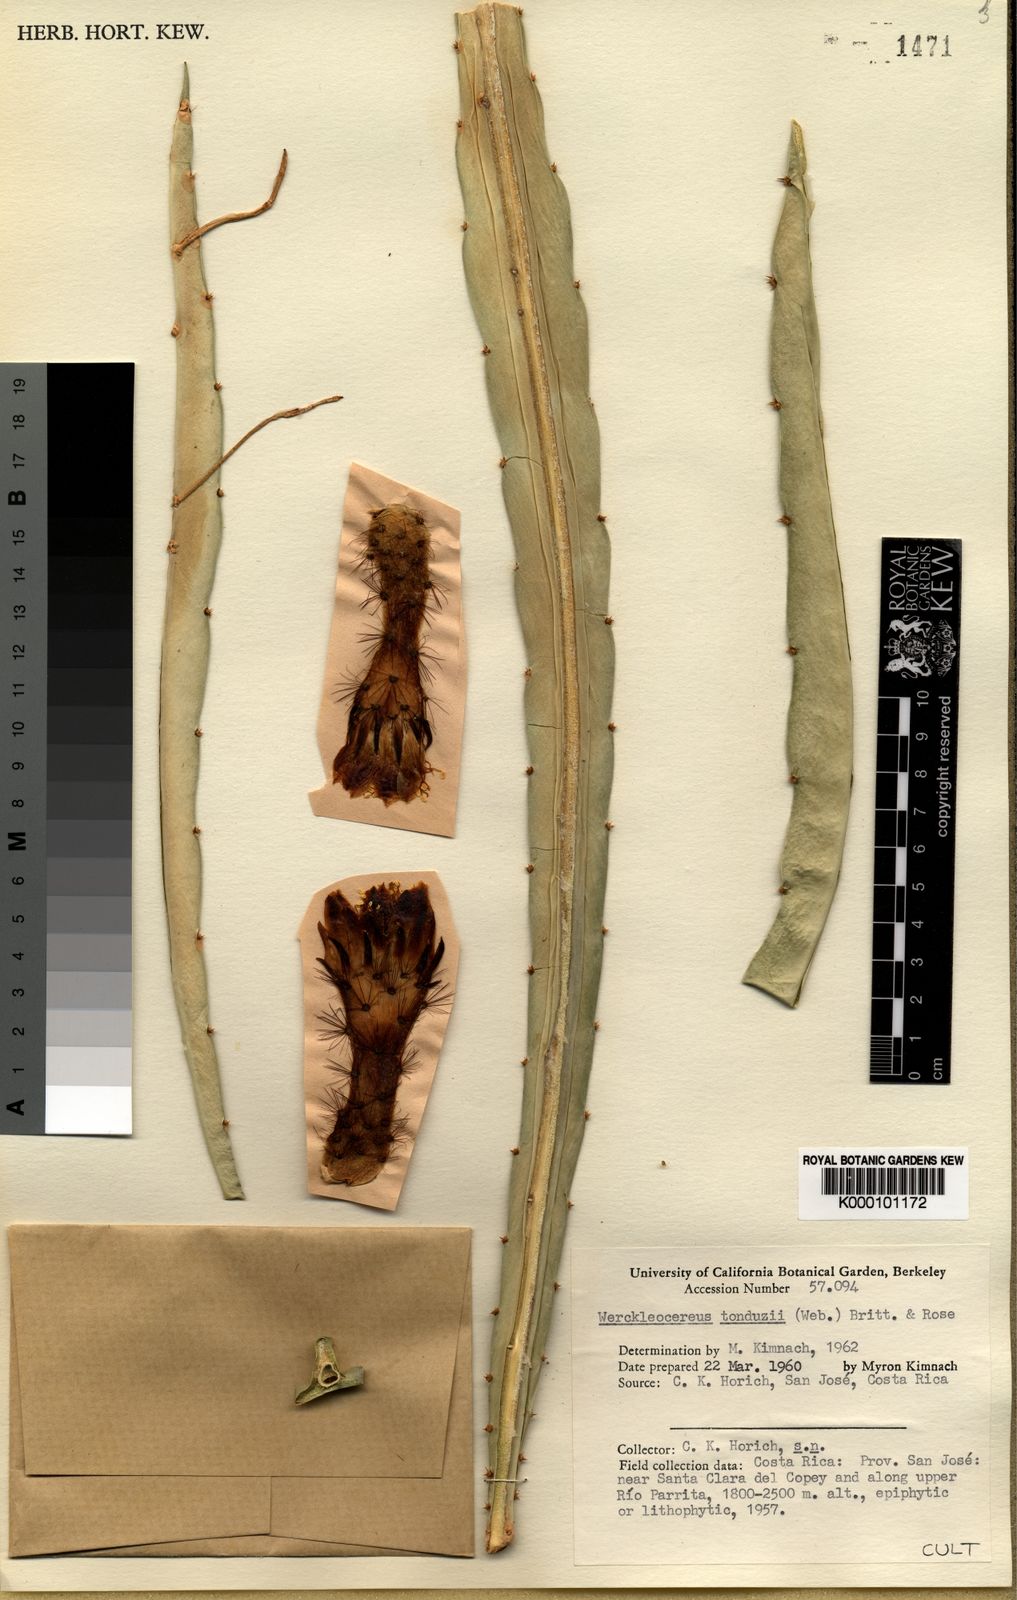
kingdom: Plantae
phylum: Tracheophyta
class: Magnoliopsida
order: Caryophyllales
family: Cactaceae
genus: Selenicereus
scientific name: Selenicereus tonduzii
